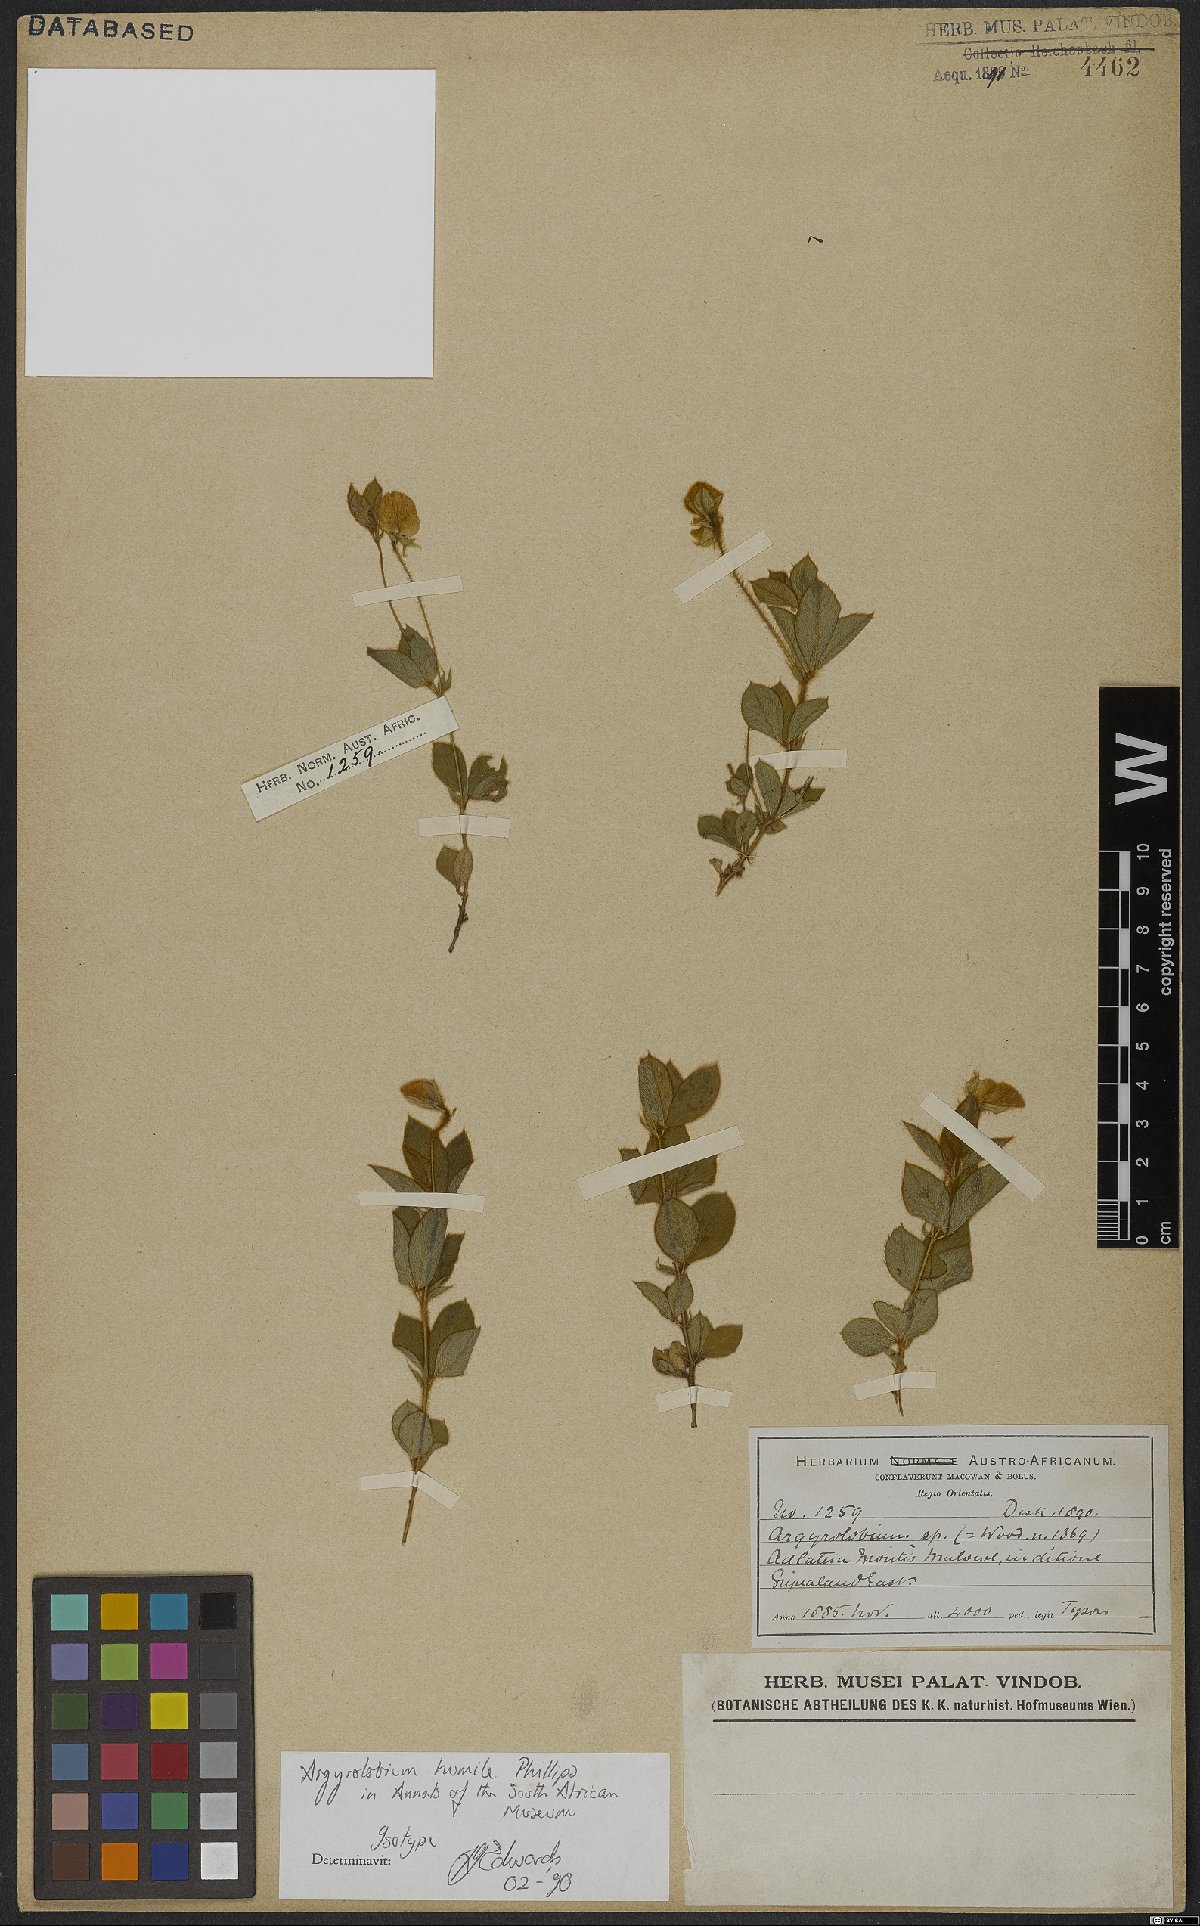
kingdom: Plantae
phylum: Tracheophyta
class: Magnoliopsida
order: Fabales
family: Fabaceae
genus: Argyrolobium
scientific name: Argyrolobium humile
